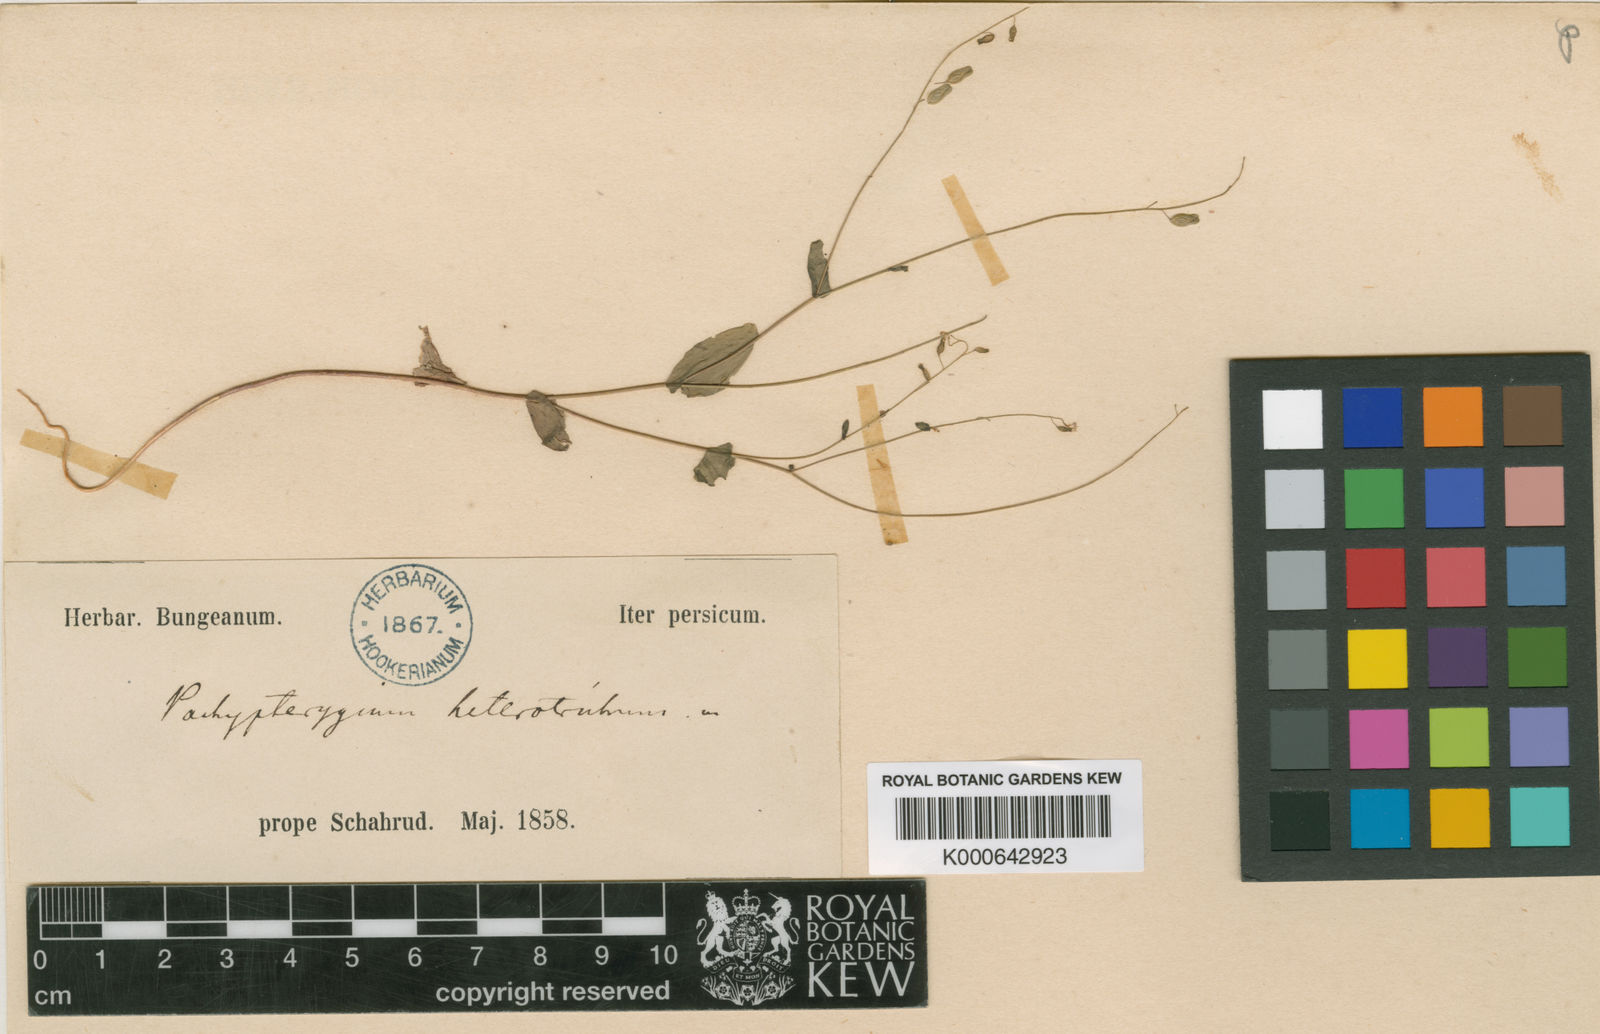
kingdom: Plantae
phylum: Tracheophyta
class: Magnoliopsida
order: Brassicales
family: Brassicaceae
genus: Isatis
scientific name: Isatis brevipes
